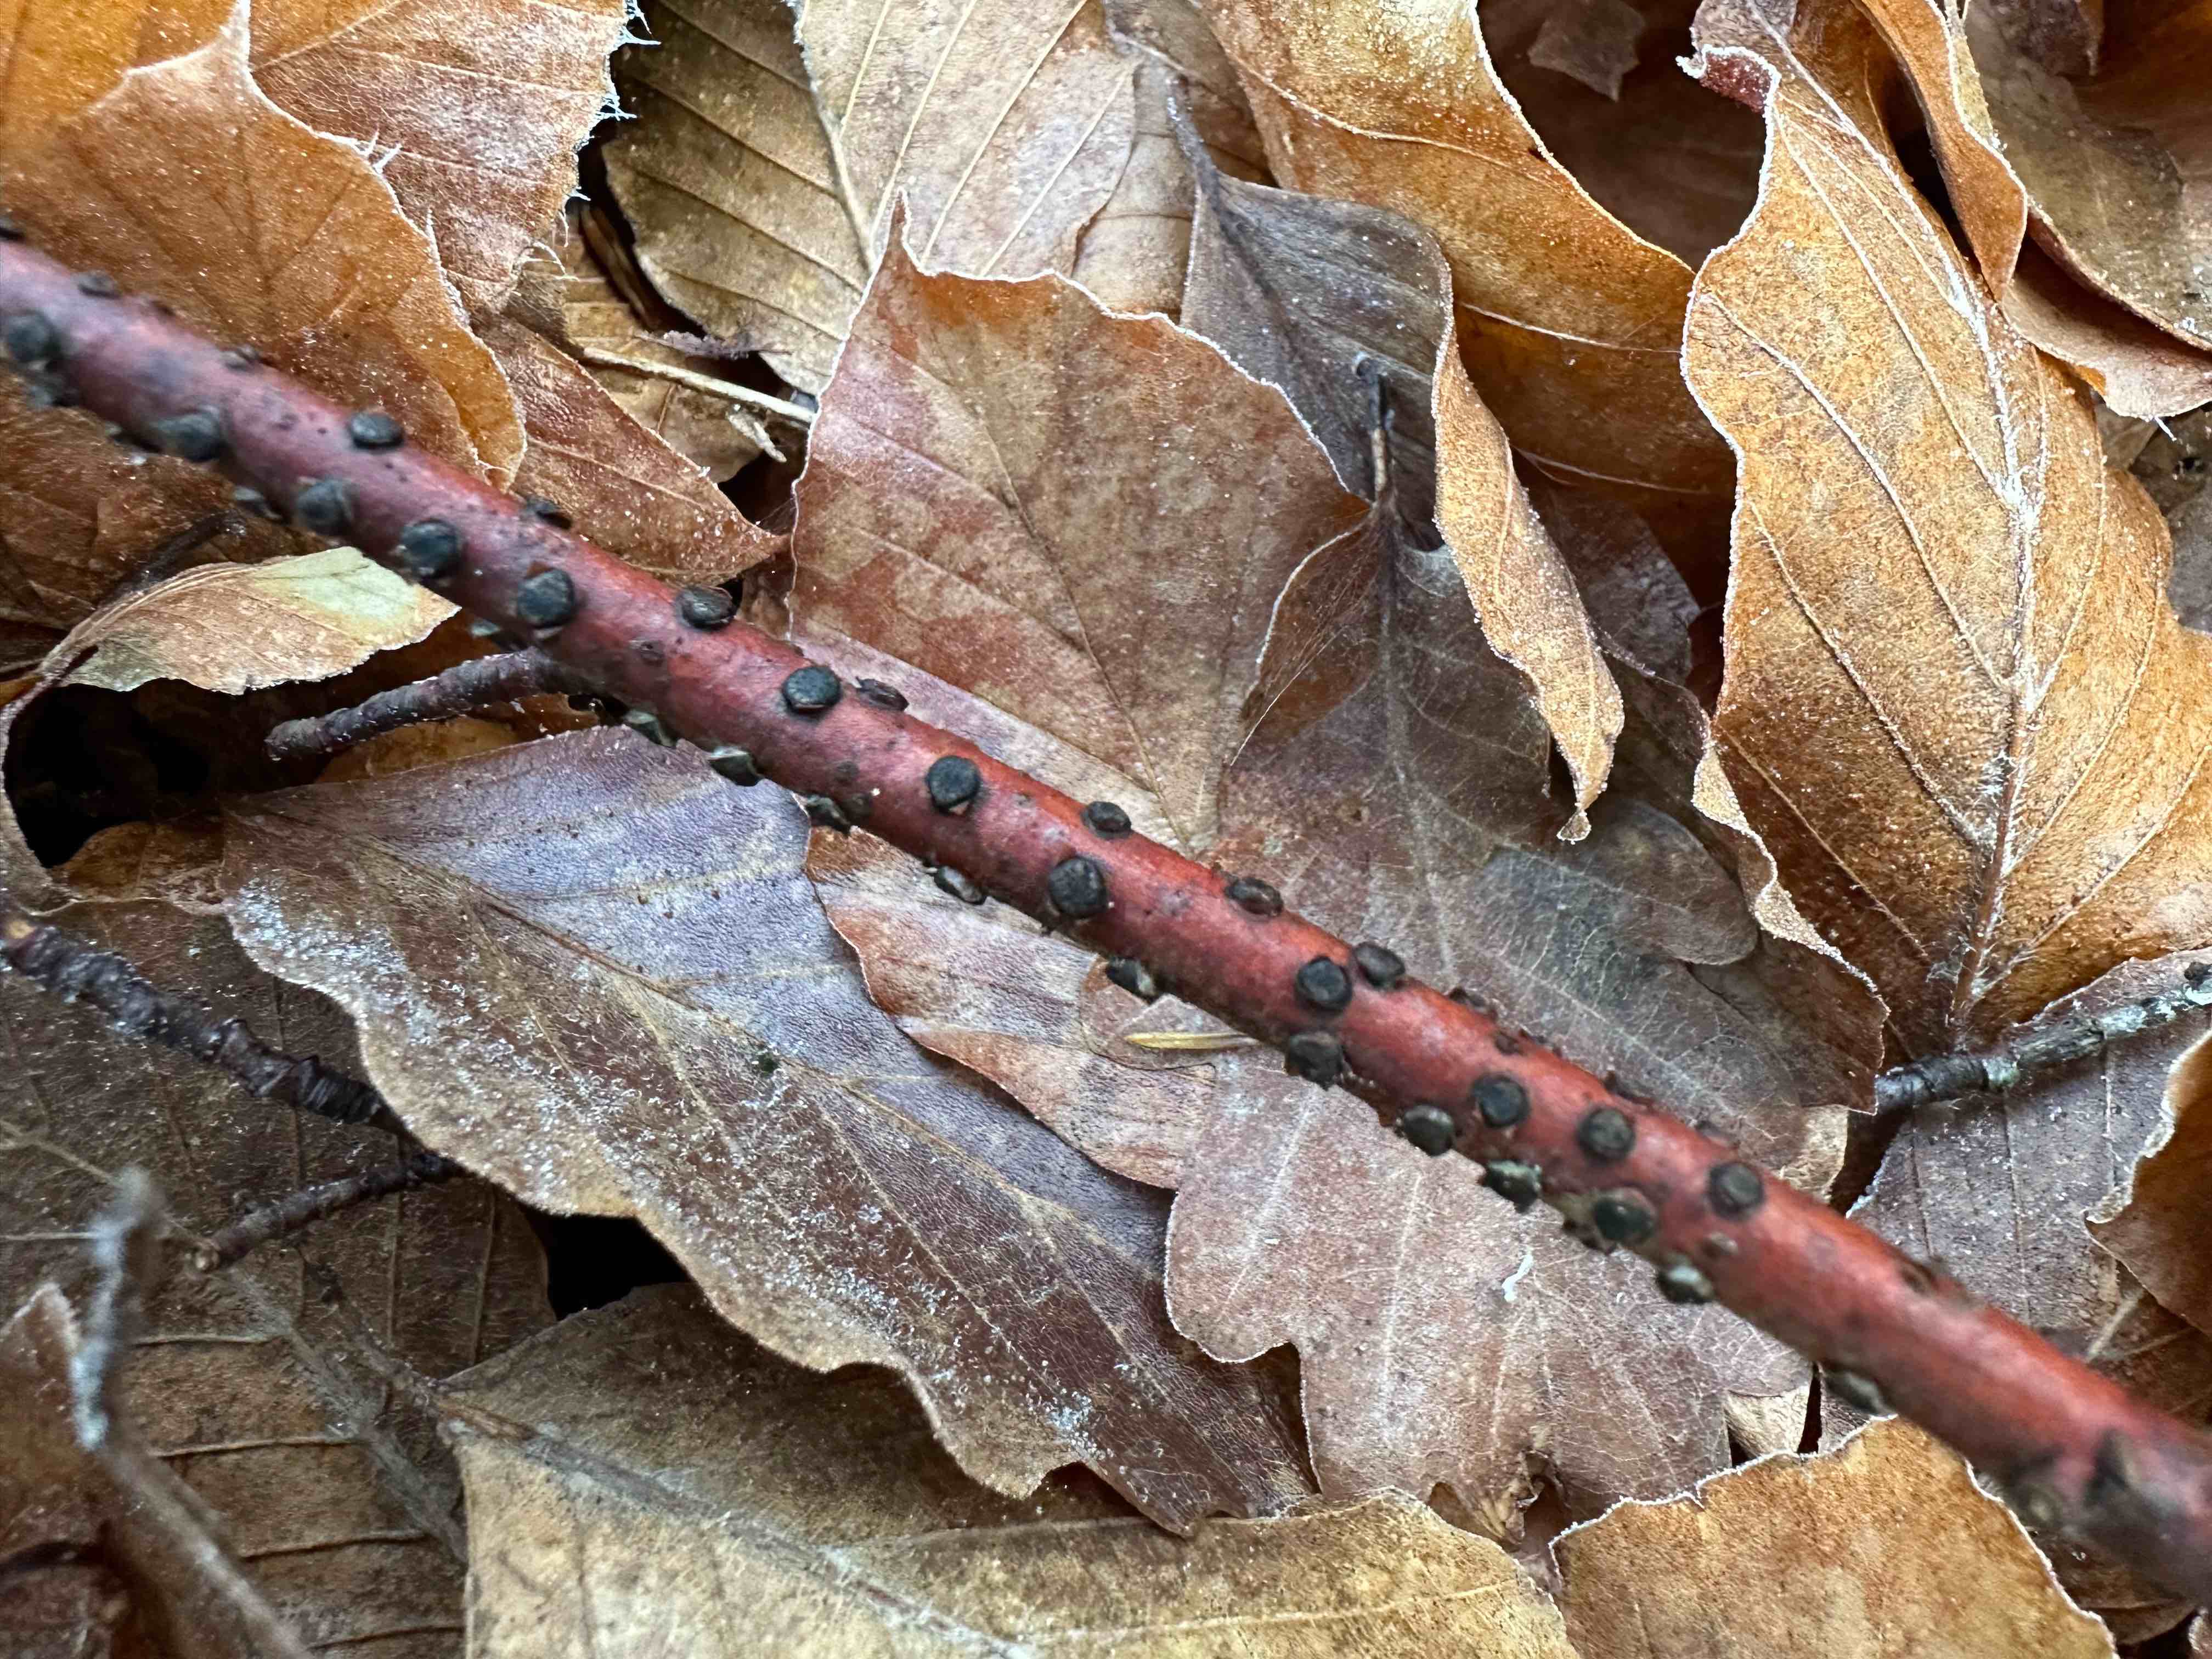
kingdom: Fungi
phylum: Ascomycota
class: Sordariomycetes
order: Xylariales
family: Diatrypaceae
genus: Diatrype
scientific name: Diatrype disciformis
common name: kant-kulskorpe
